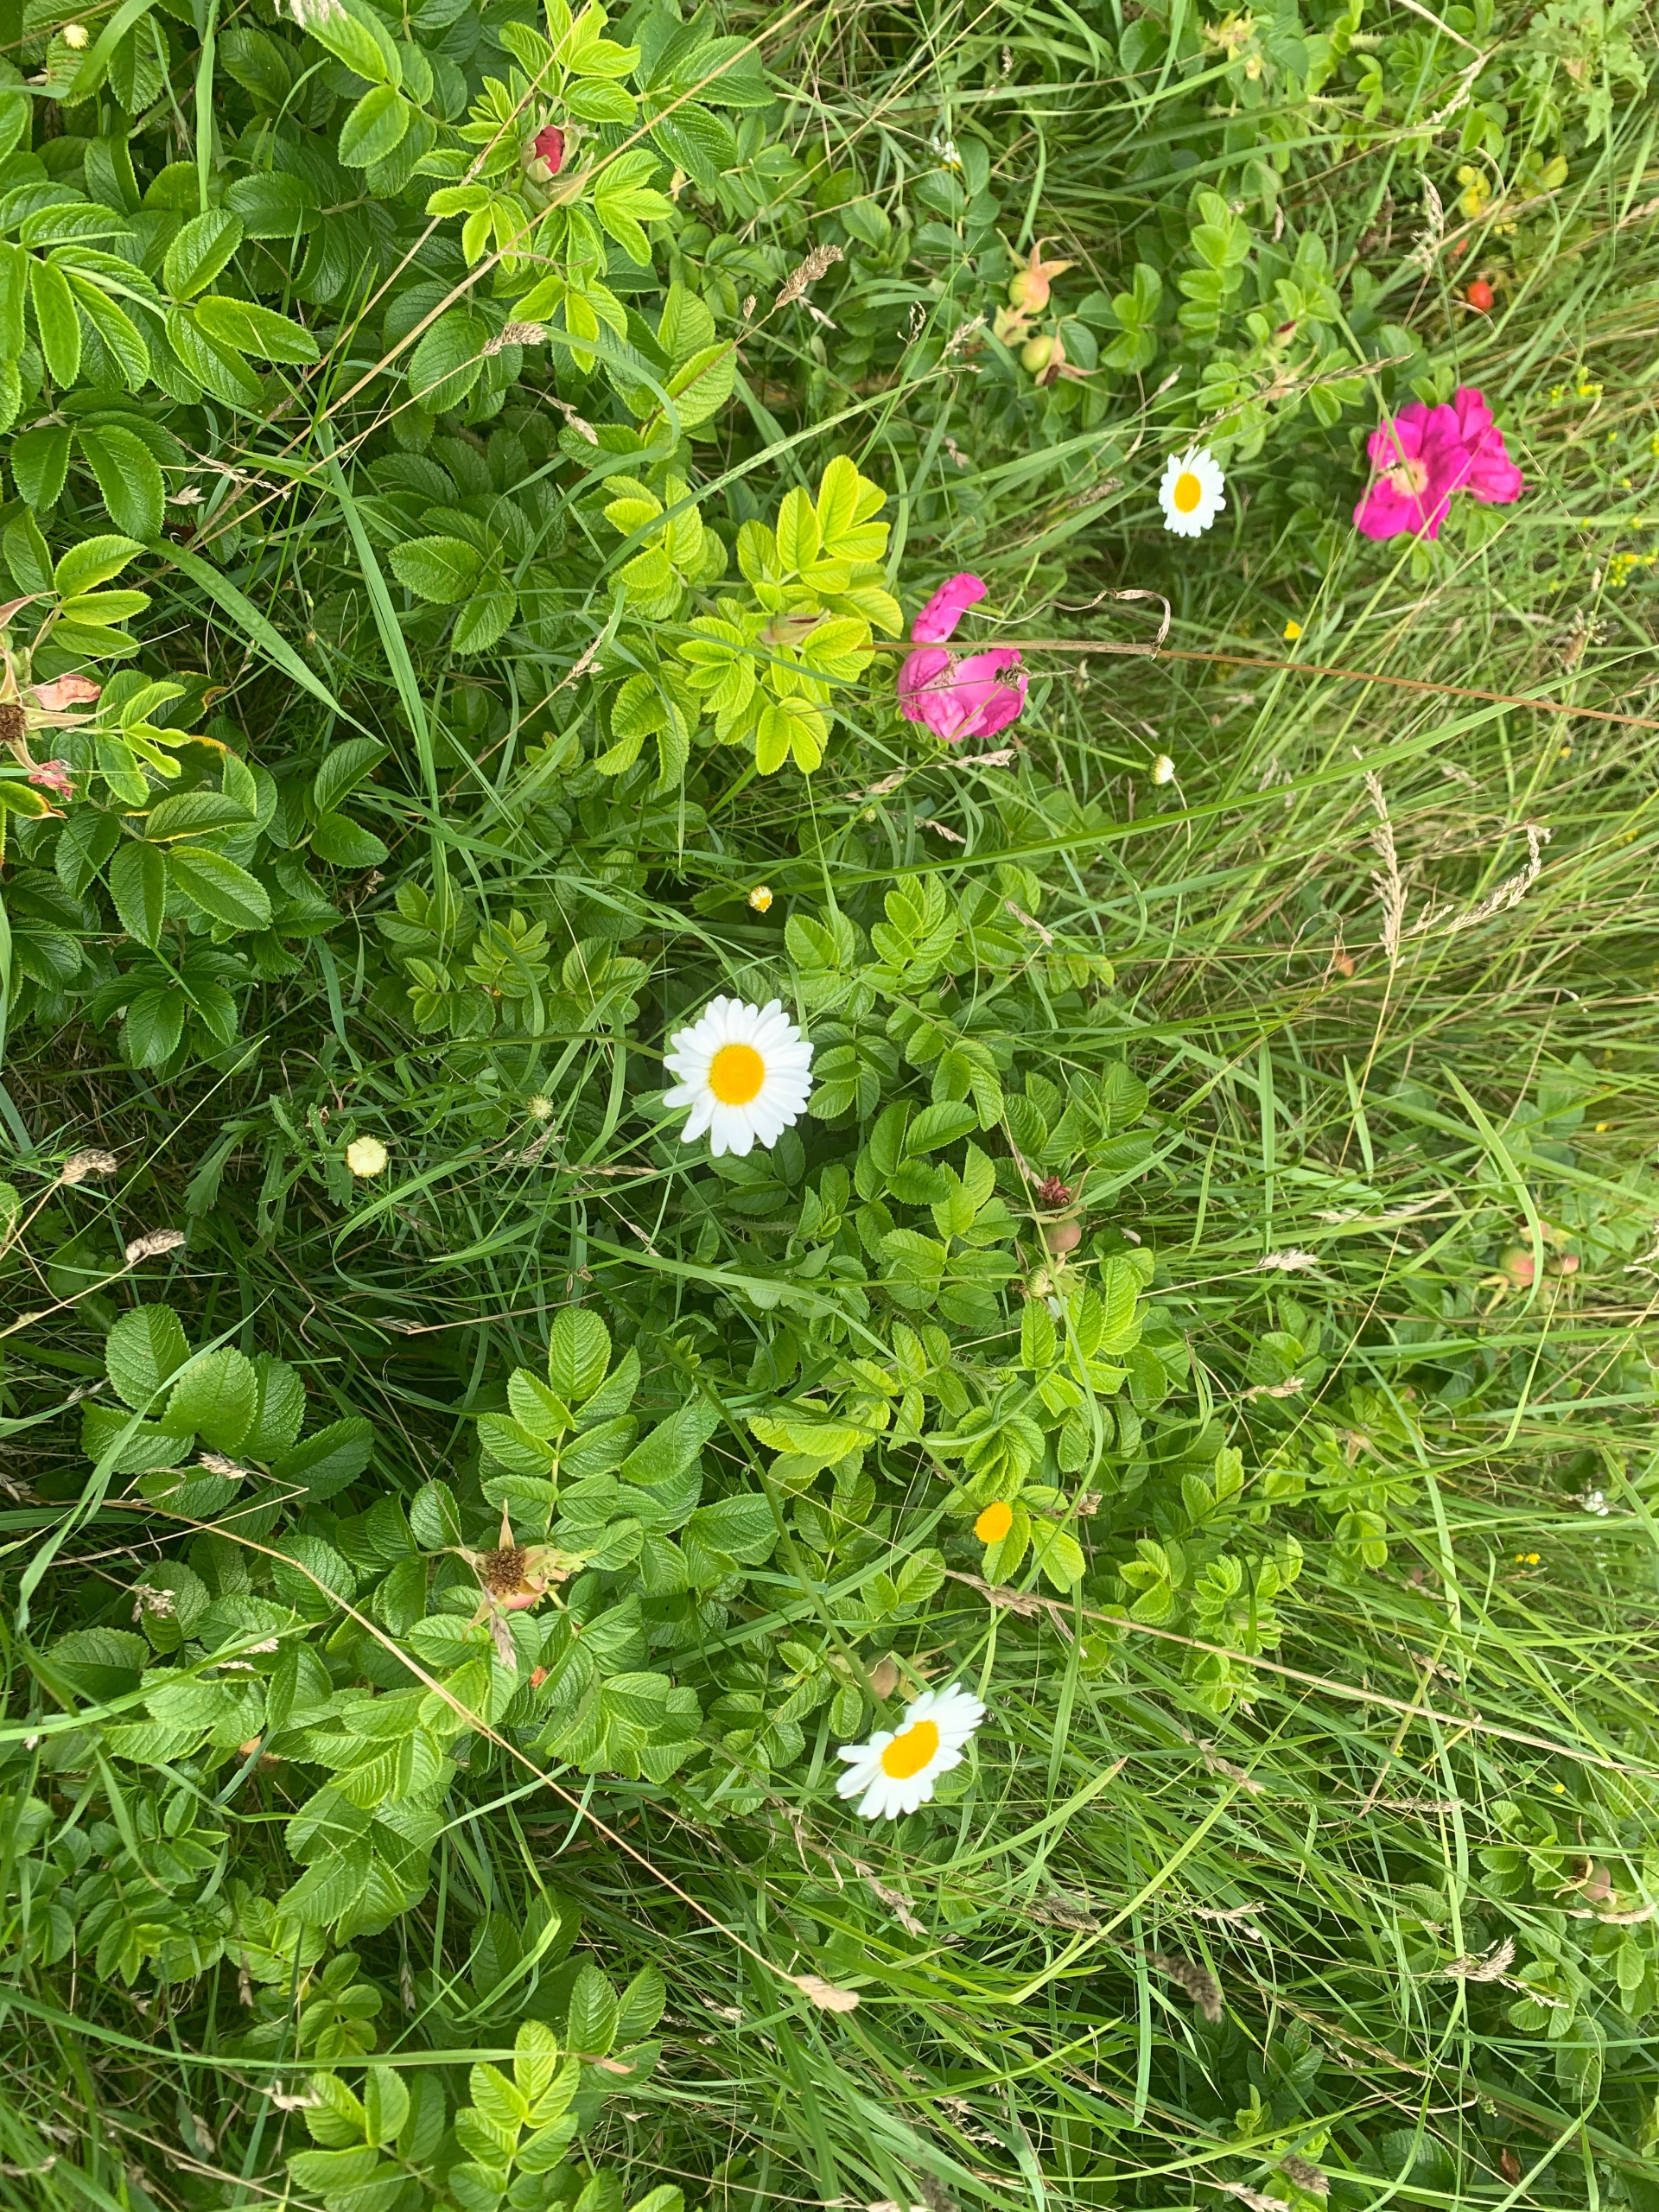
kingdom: Plantae
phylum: Tracheophyta
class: Magnoliopsida
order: Asterales
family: Asteraceae
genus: Leucanthemum
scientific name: Leucanthemum vulgare
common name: Hvid okseøje
